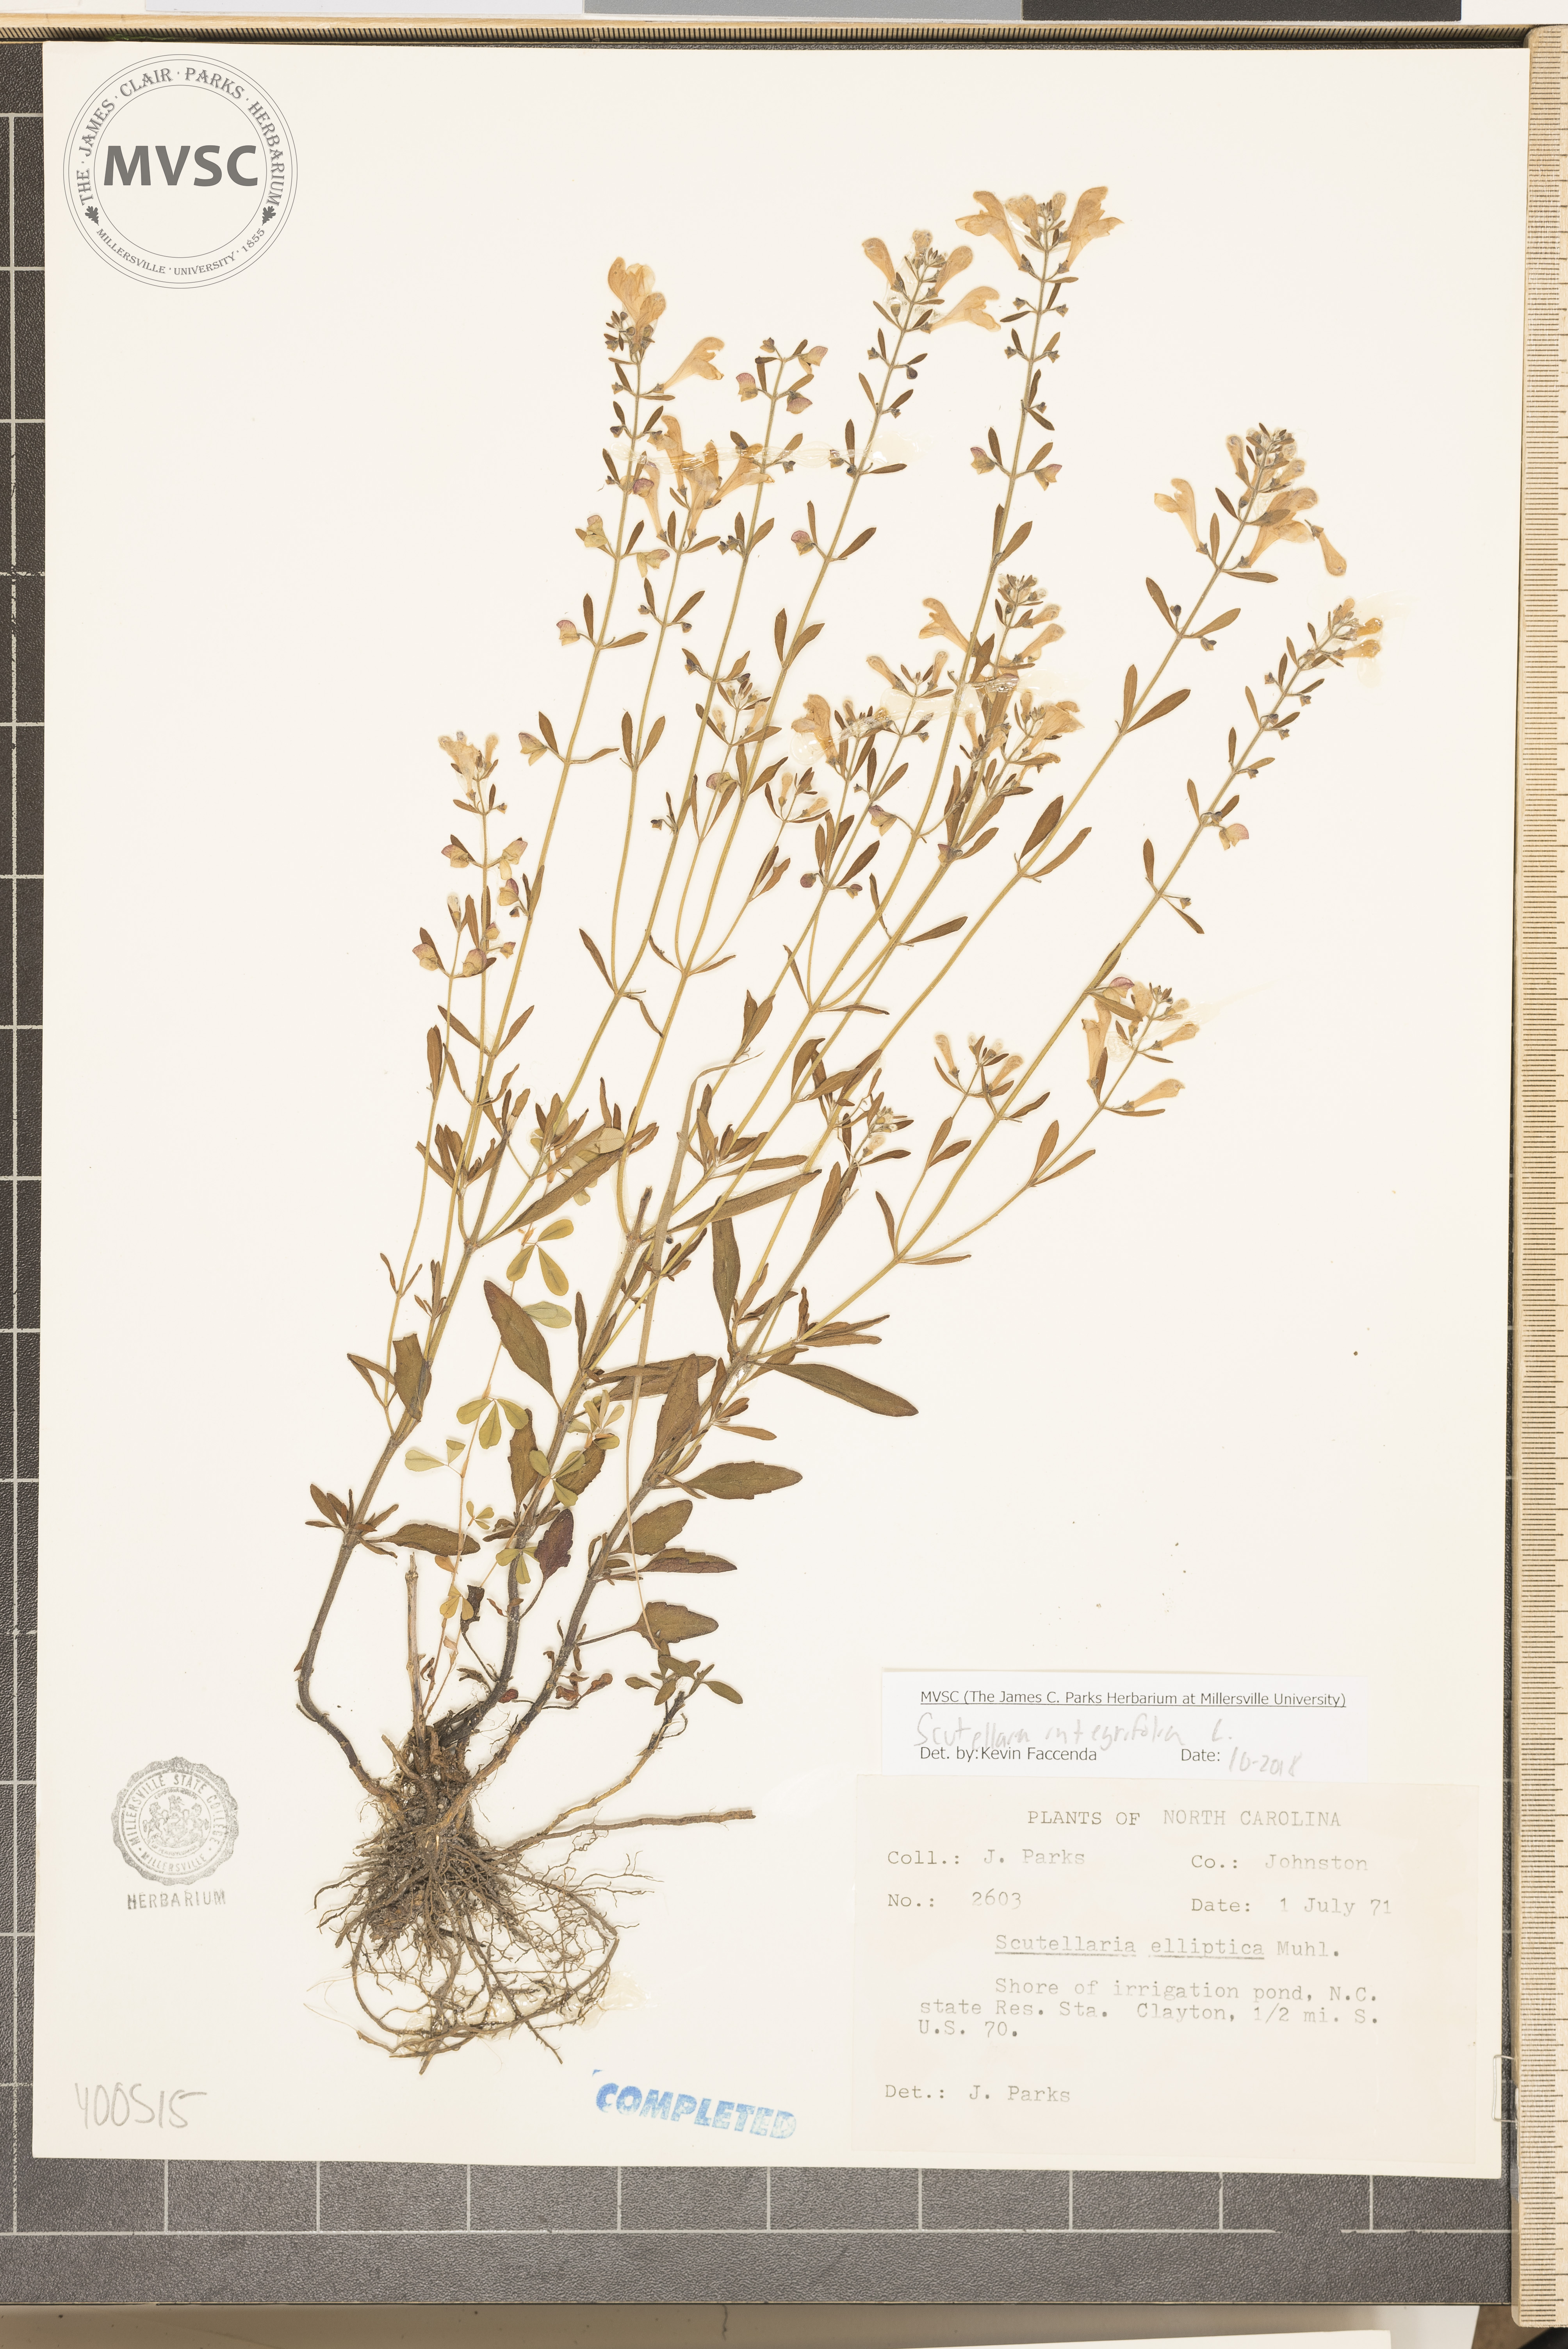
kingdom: Plantae
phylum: Tracheophyta
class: Magnoliopsida
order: Lamiales
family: Lamiaceae
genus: Scutellaria
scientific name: Scutellaria integrifolia
